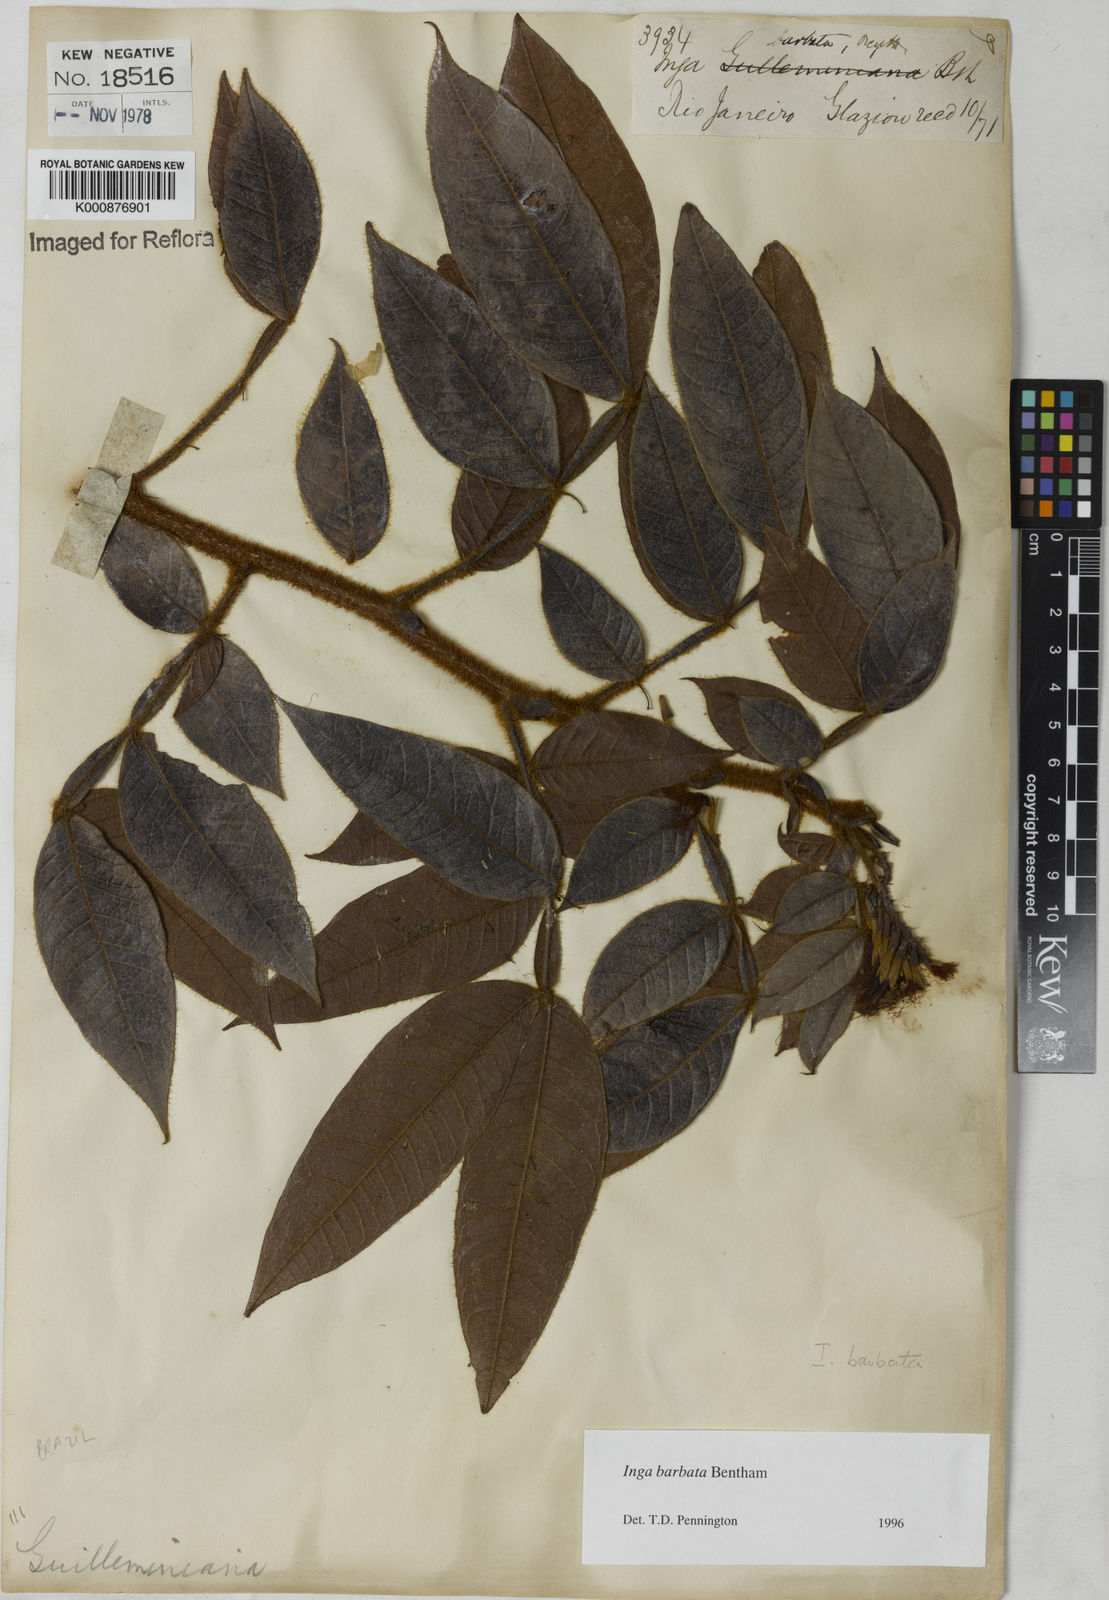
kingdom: Plantae
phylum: Tracheophyta
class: Magnoliopsida
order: Fabales
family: Fabaceae
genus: Inga
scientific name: Inga barbata
